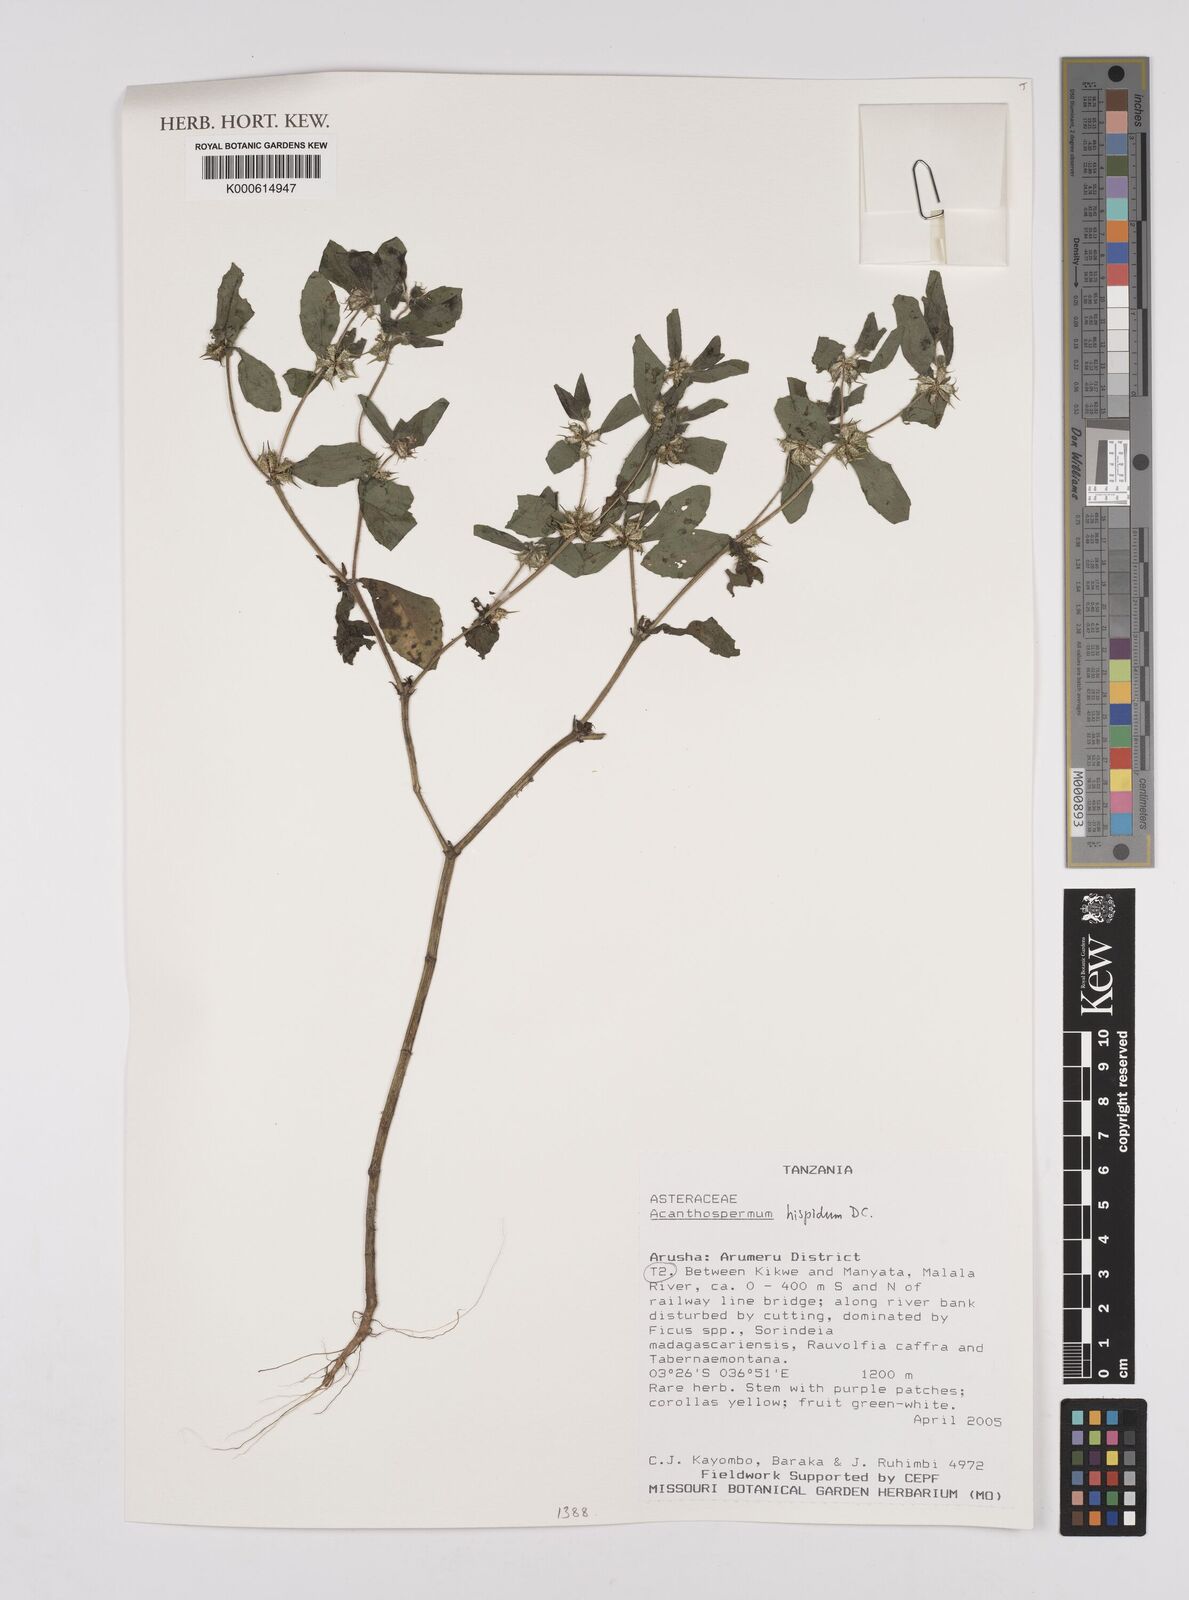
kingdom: Plantae
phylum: Tracheophyta
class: Magnoliopsida
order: Asterales
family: Asteraceae
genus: Acanthospermum
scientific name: Acanthospermum hispidum
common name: Hispid starbur
